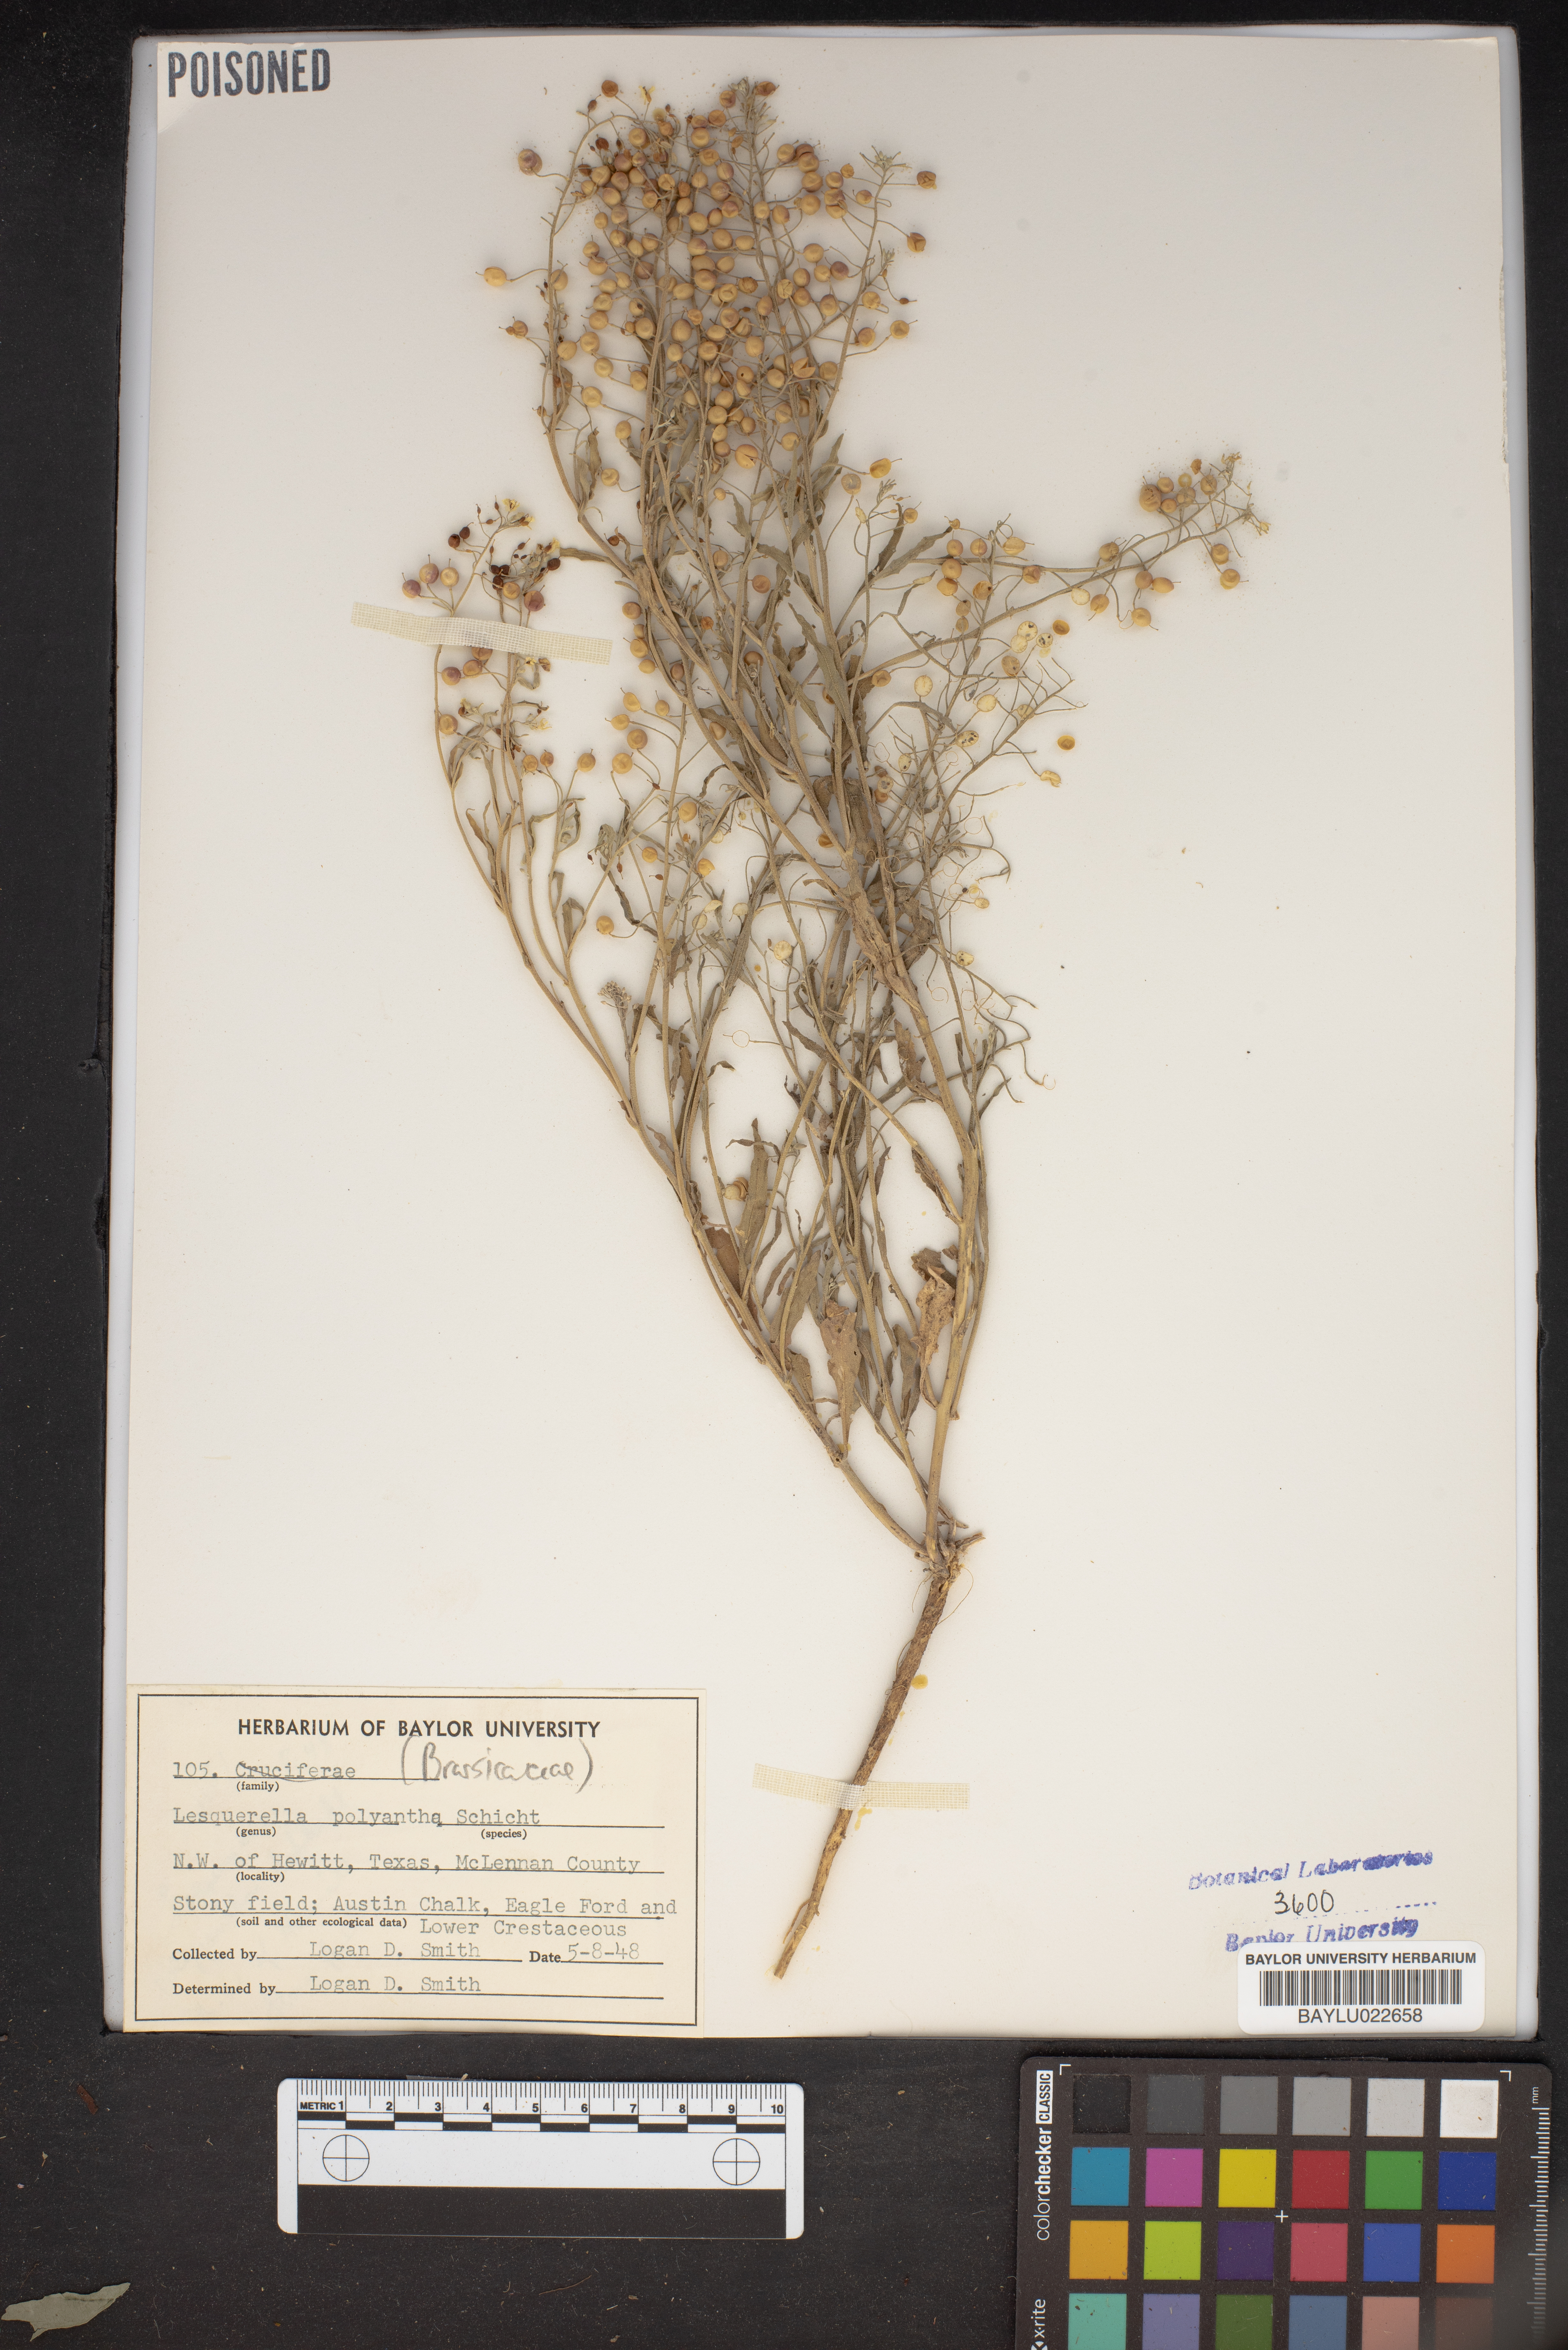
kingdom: Plantae
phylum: Tracheophyta
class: Magnoliopsida
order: Brassicales
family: Brassicaceae
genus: Physaria
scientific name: Physaria gracilis
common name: Spreading bladderpod
